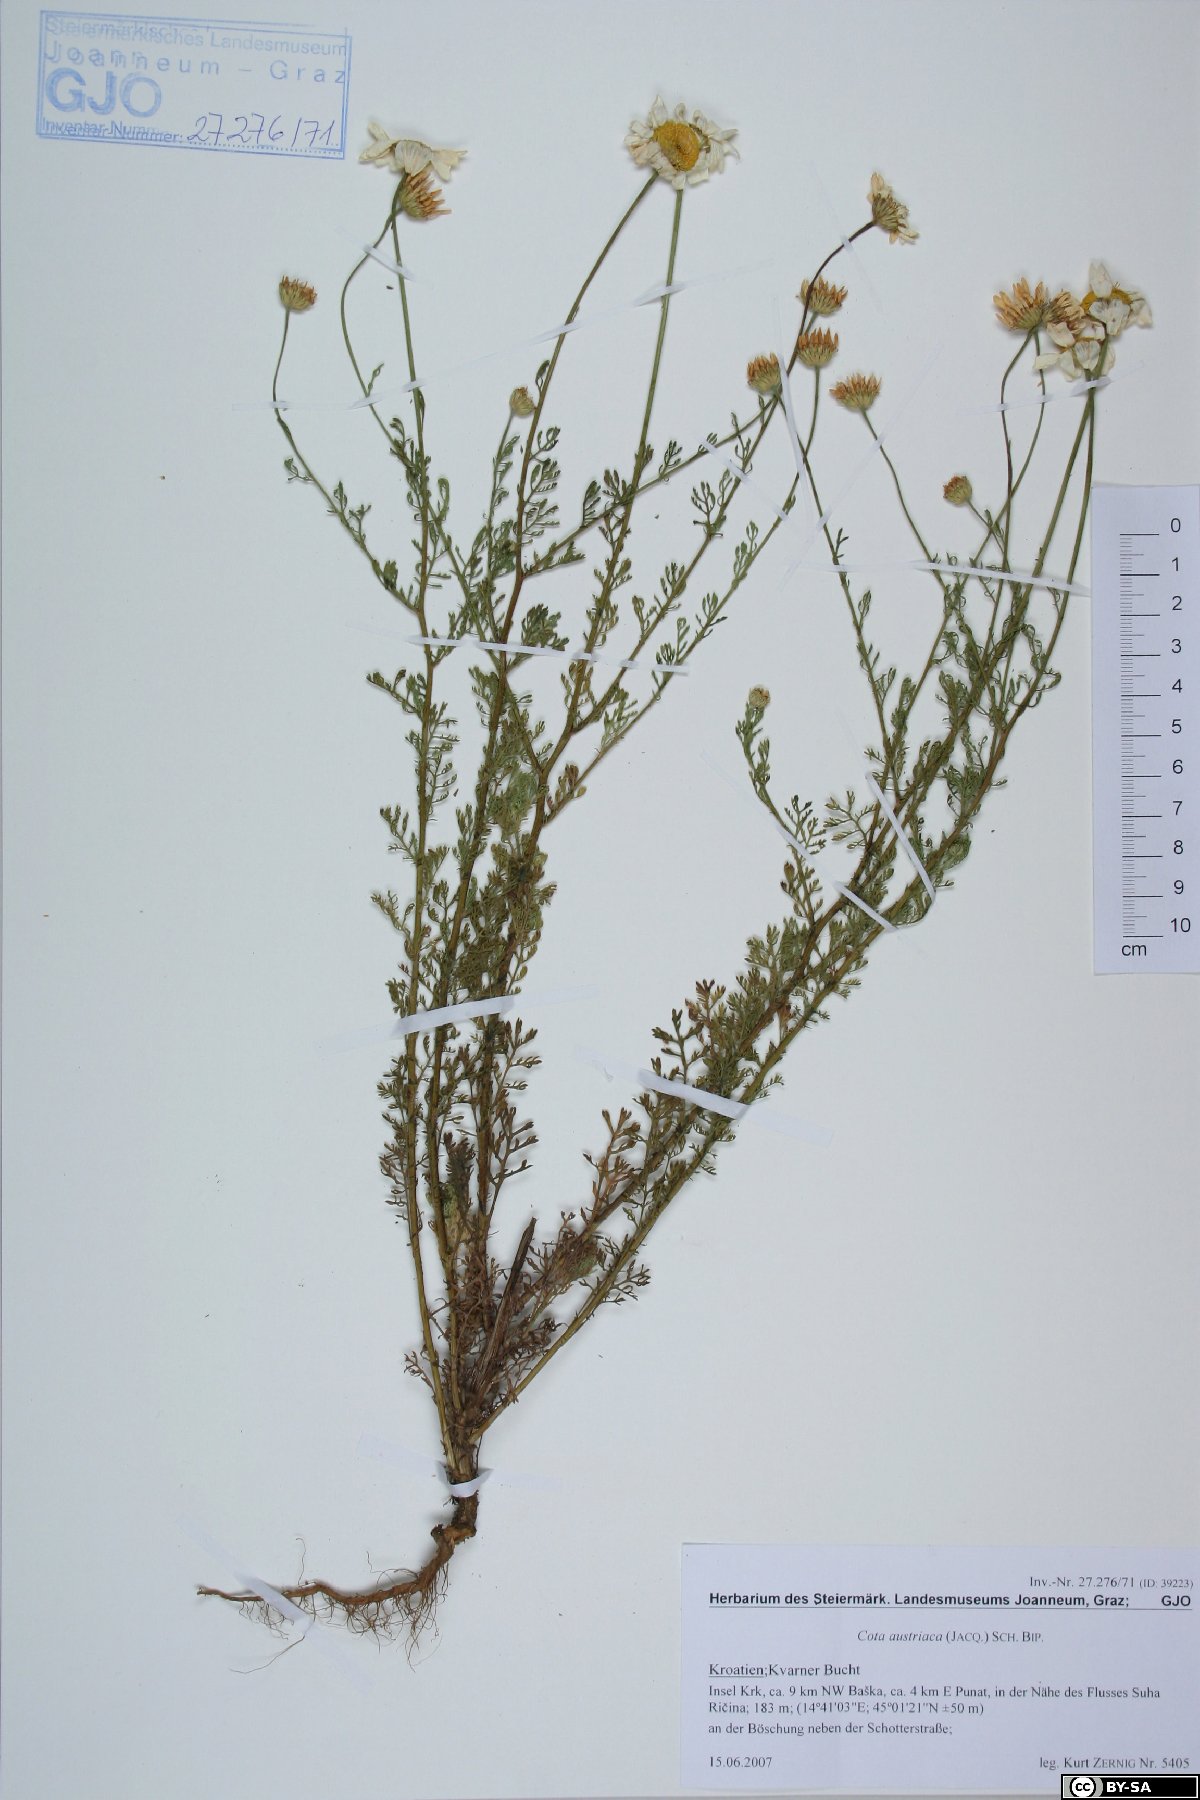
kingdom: Plantae
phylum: Tracheophyta
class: Magnoliopsida
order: Asterales
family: Asteraceae
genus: Cota
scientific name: Cota austriaca
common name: Austrian chamomile
